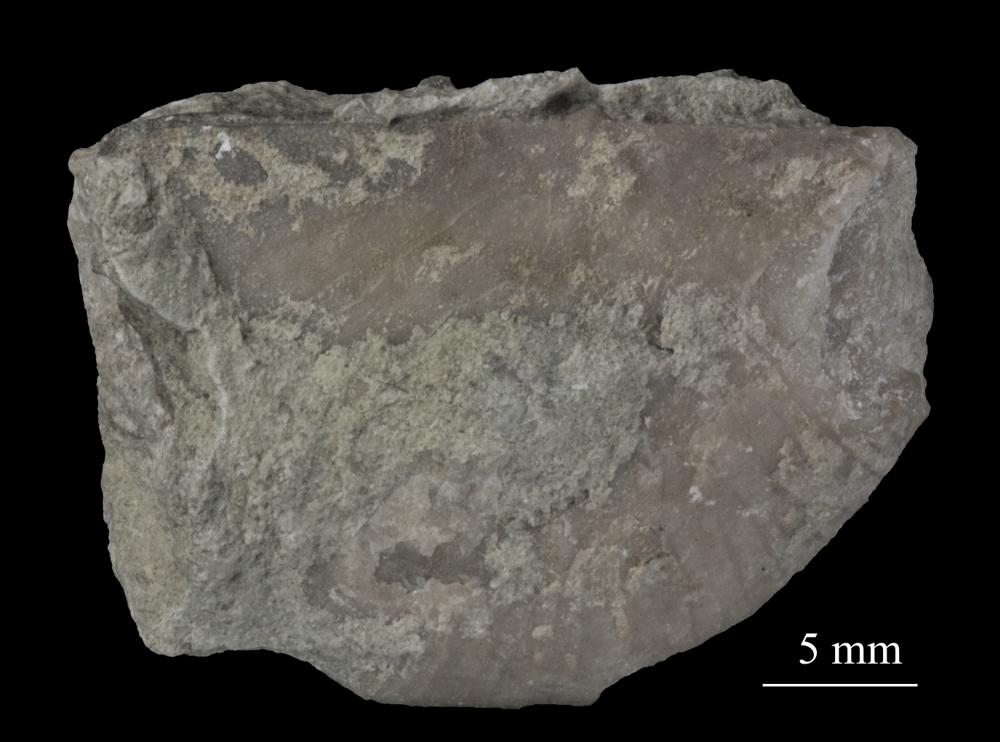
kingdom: Animalia
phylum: Brachiopoda
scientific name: Brachiopoda
